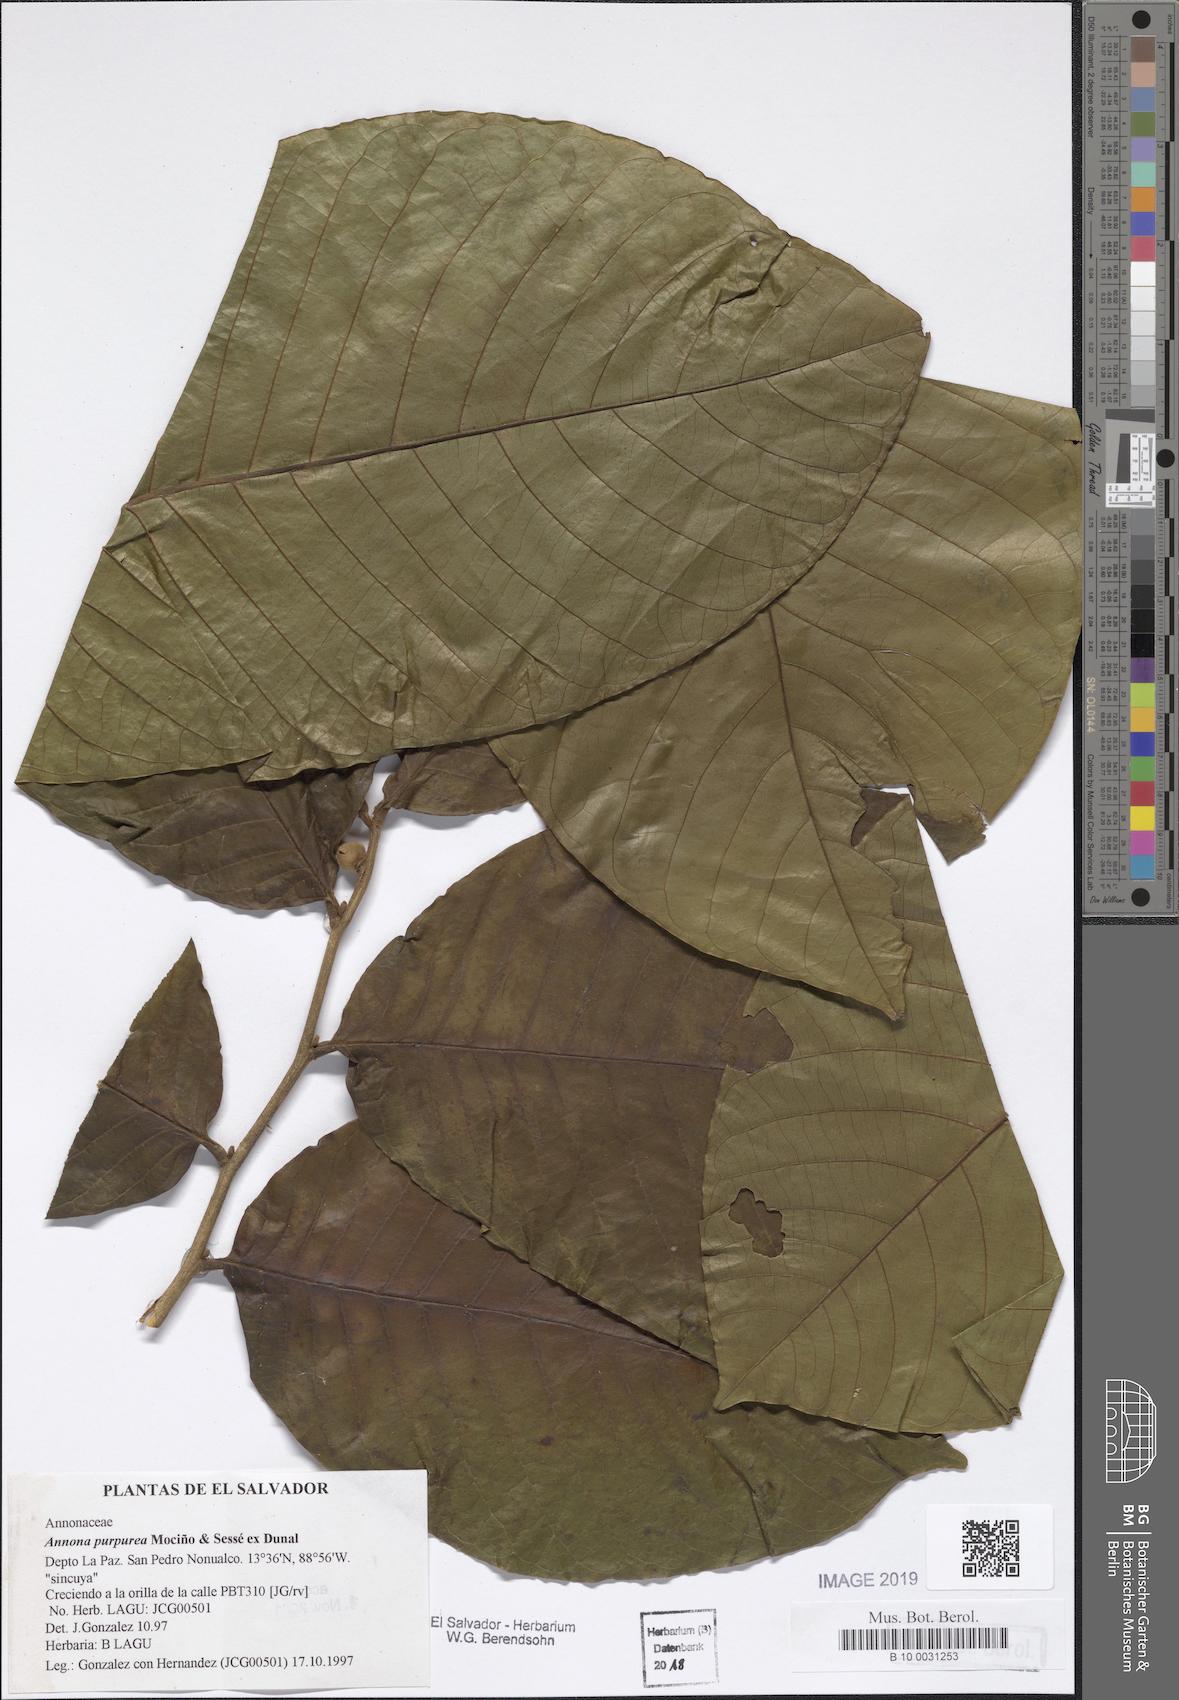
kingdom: Plantae
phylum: Tracheophyta
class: Magnoliopsida
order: Magnoliales
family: Annonaceae
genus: Annona
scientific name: Annona purpurea
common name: Negrohead
